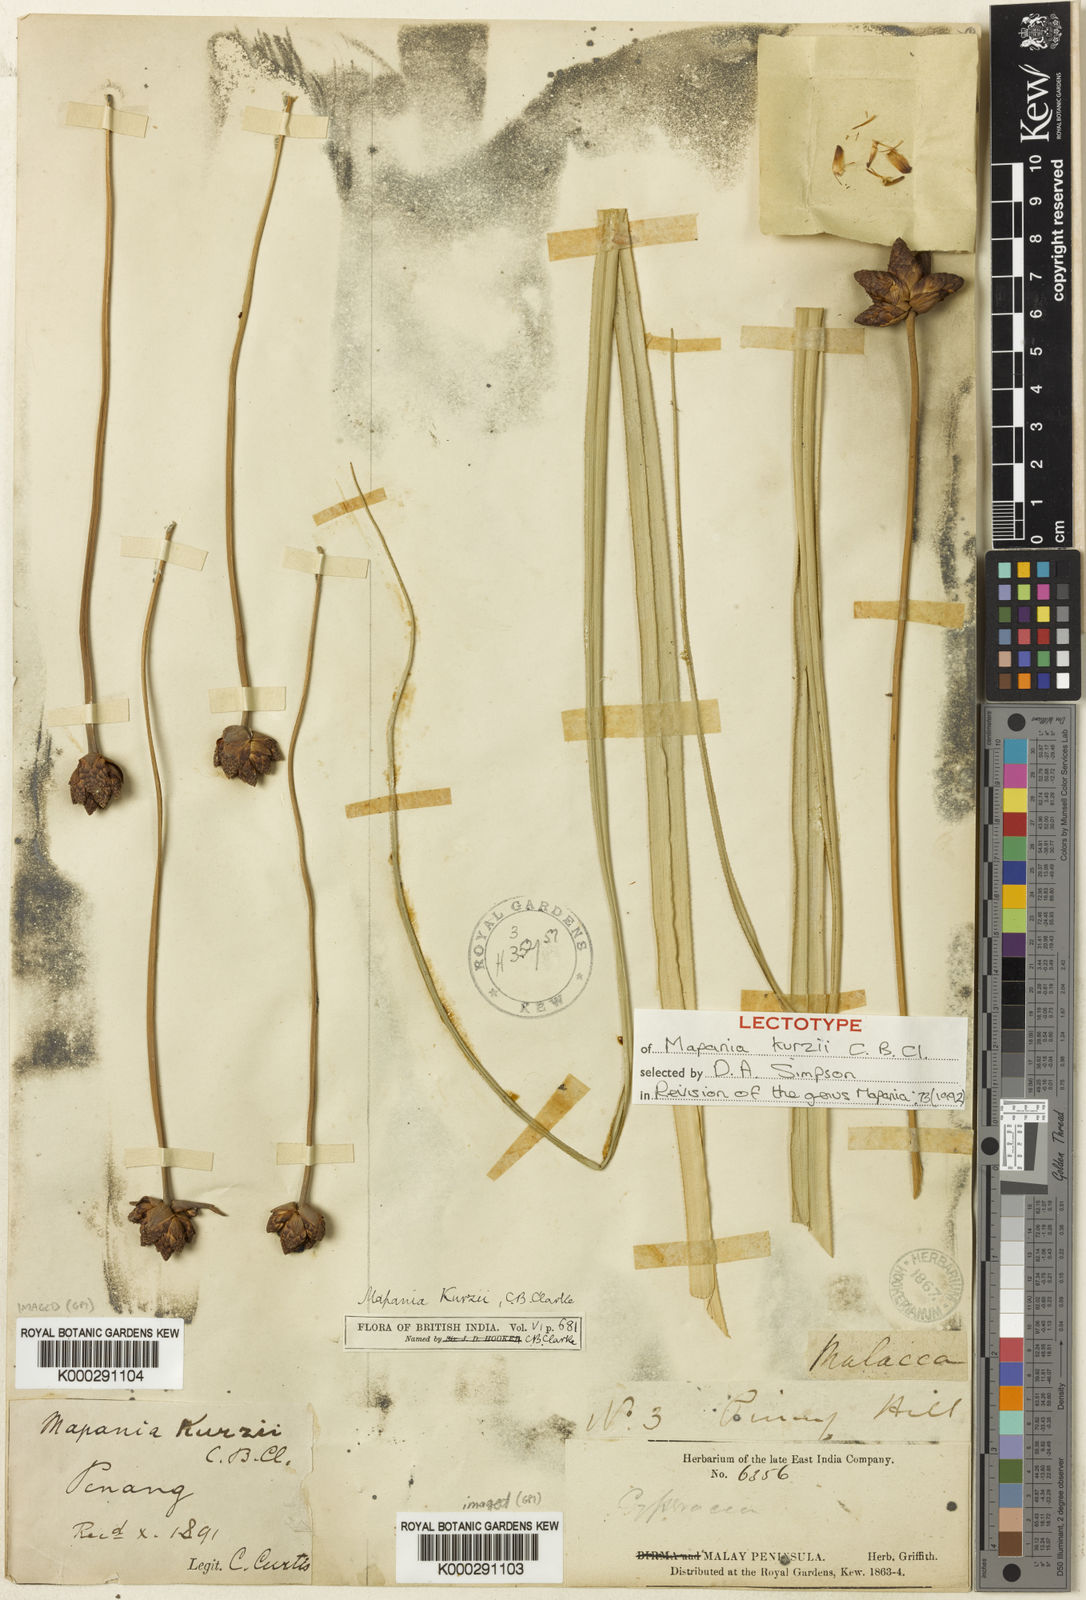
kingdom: Plantae
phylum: Tracheophyta
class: Liliopsida
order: Poales
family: Cyperaceae
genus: Mapania
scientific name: Mapania kurzii
